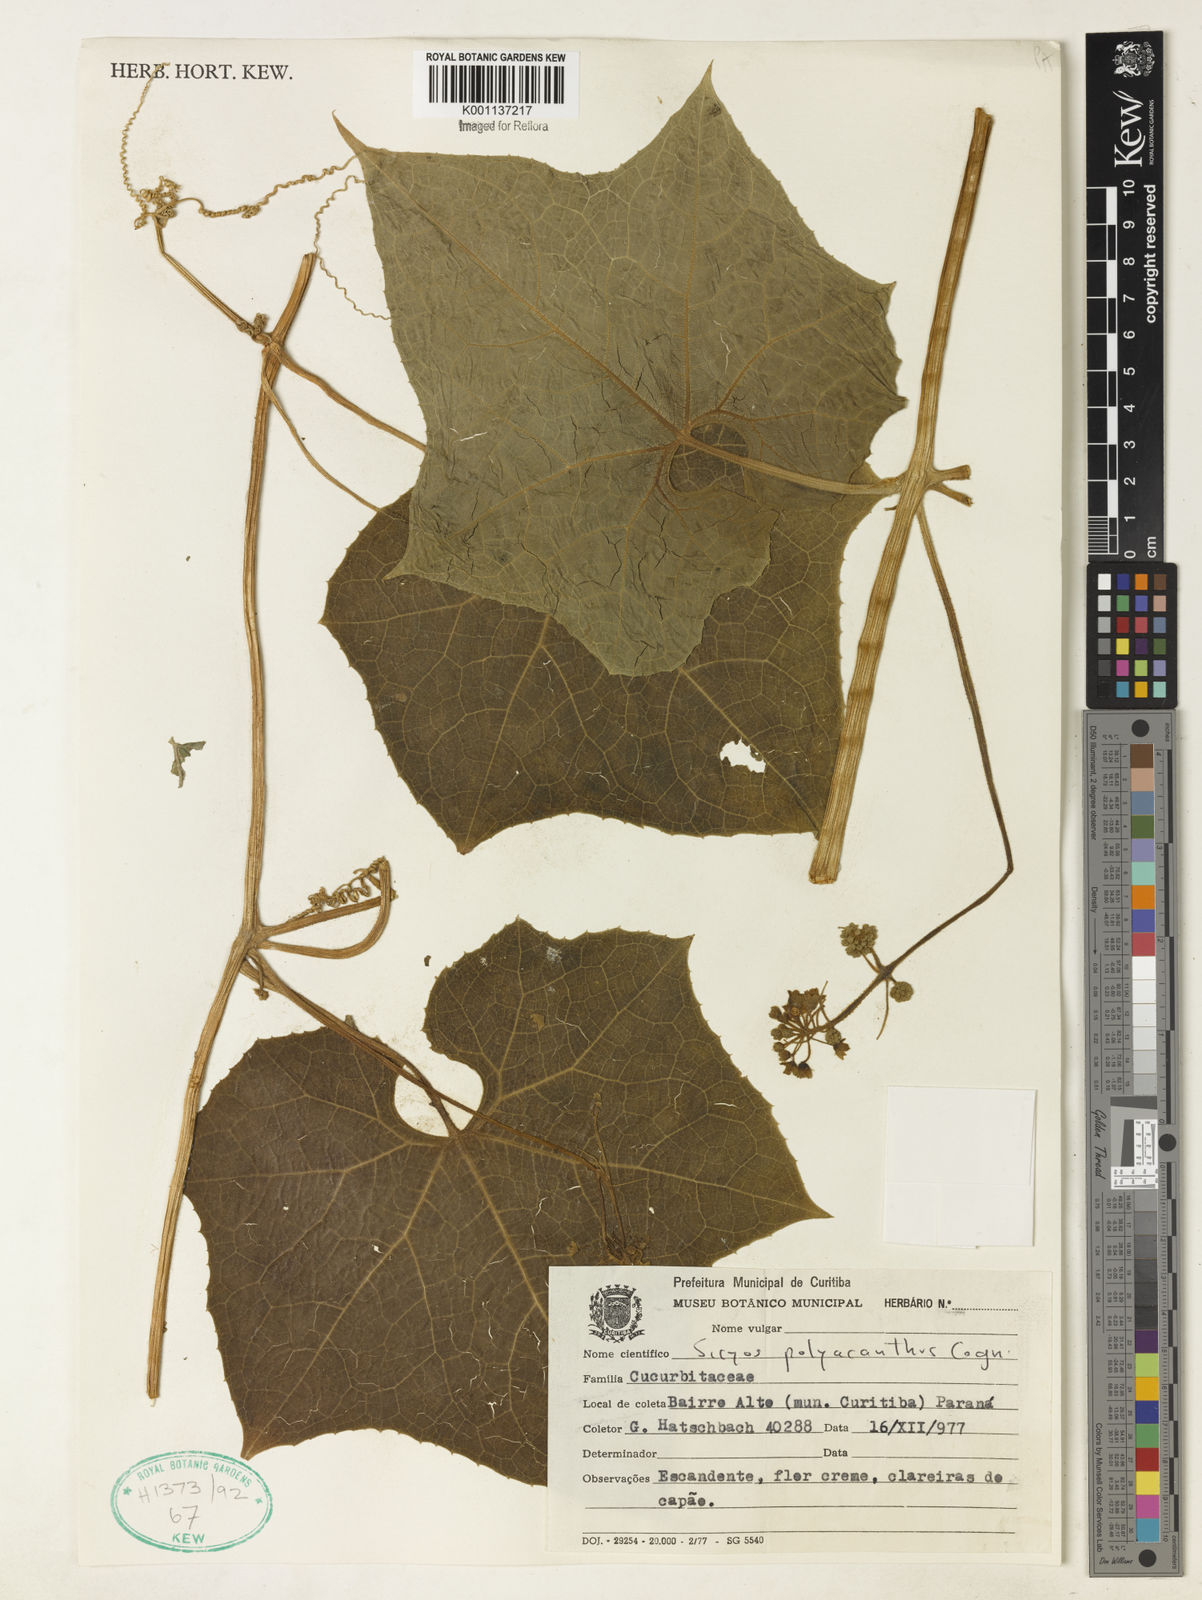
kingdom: Plantae
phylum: Tracheophyta
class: Magnoliopsida
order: Cucurbitales
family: Cucurbitaceae
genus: Sicyos
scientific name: Sicyos polyacanthos
